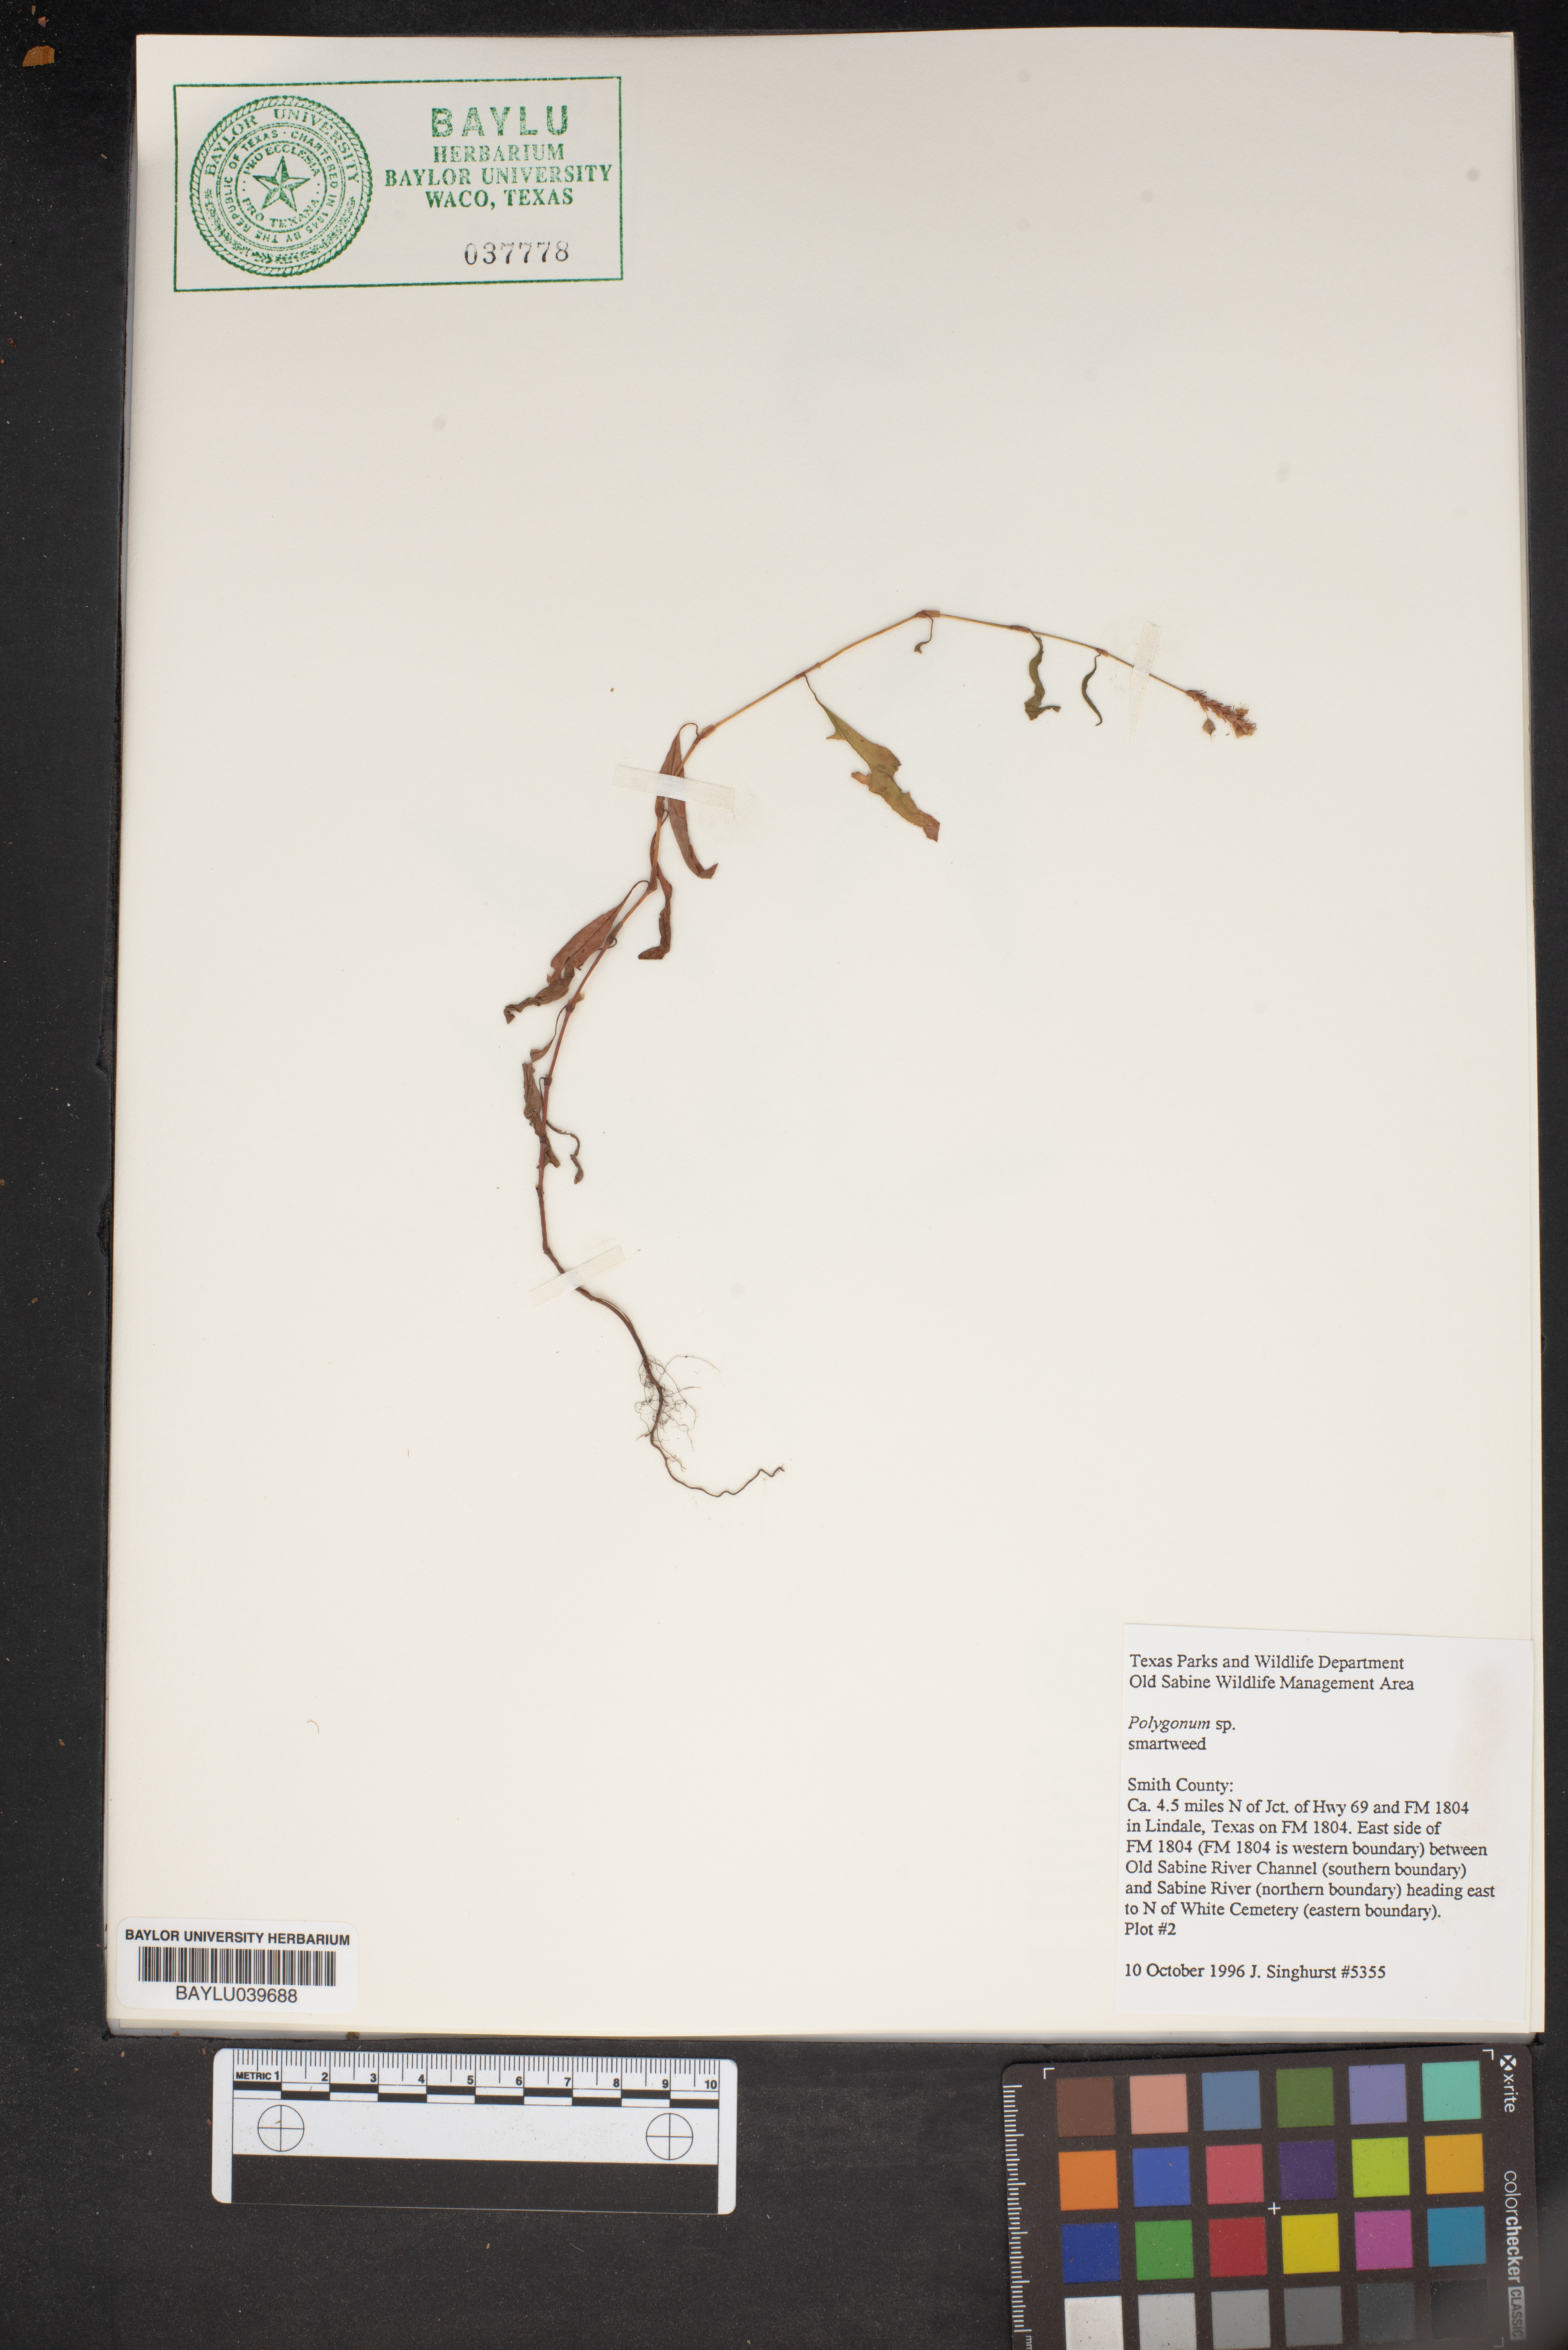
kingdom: Plantae
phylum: Tracheophyta
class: Magnoliopsida
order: Caryophyllales
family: Polygonaceae
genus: Polygonum
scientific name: Polygonum
